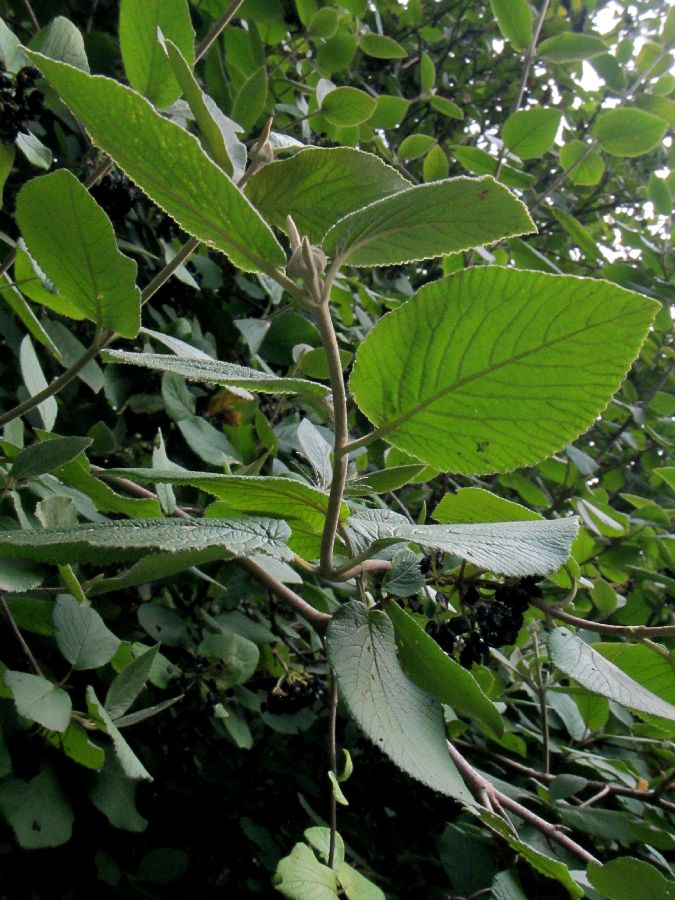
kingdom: Plantae
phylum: Tracheophyta
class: Magnoliopsida
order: Dipsacales
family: Viburnaceae
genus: Viburnum
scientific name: Viburnum lantana
